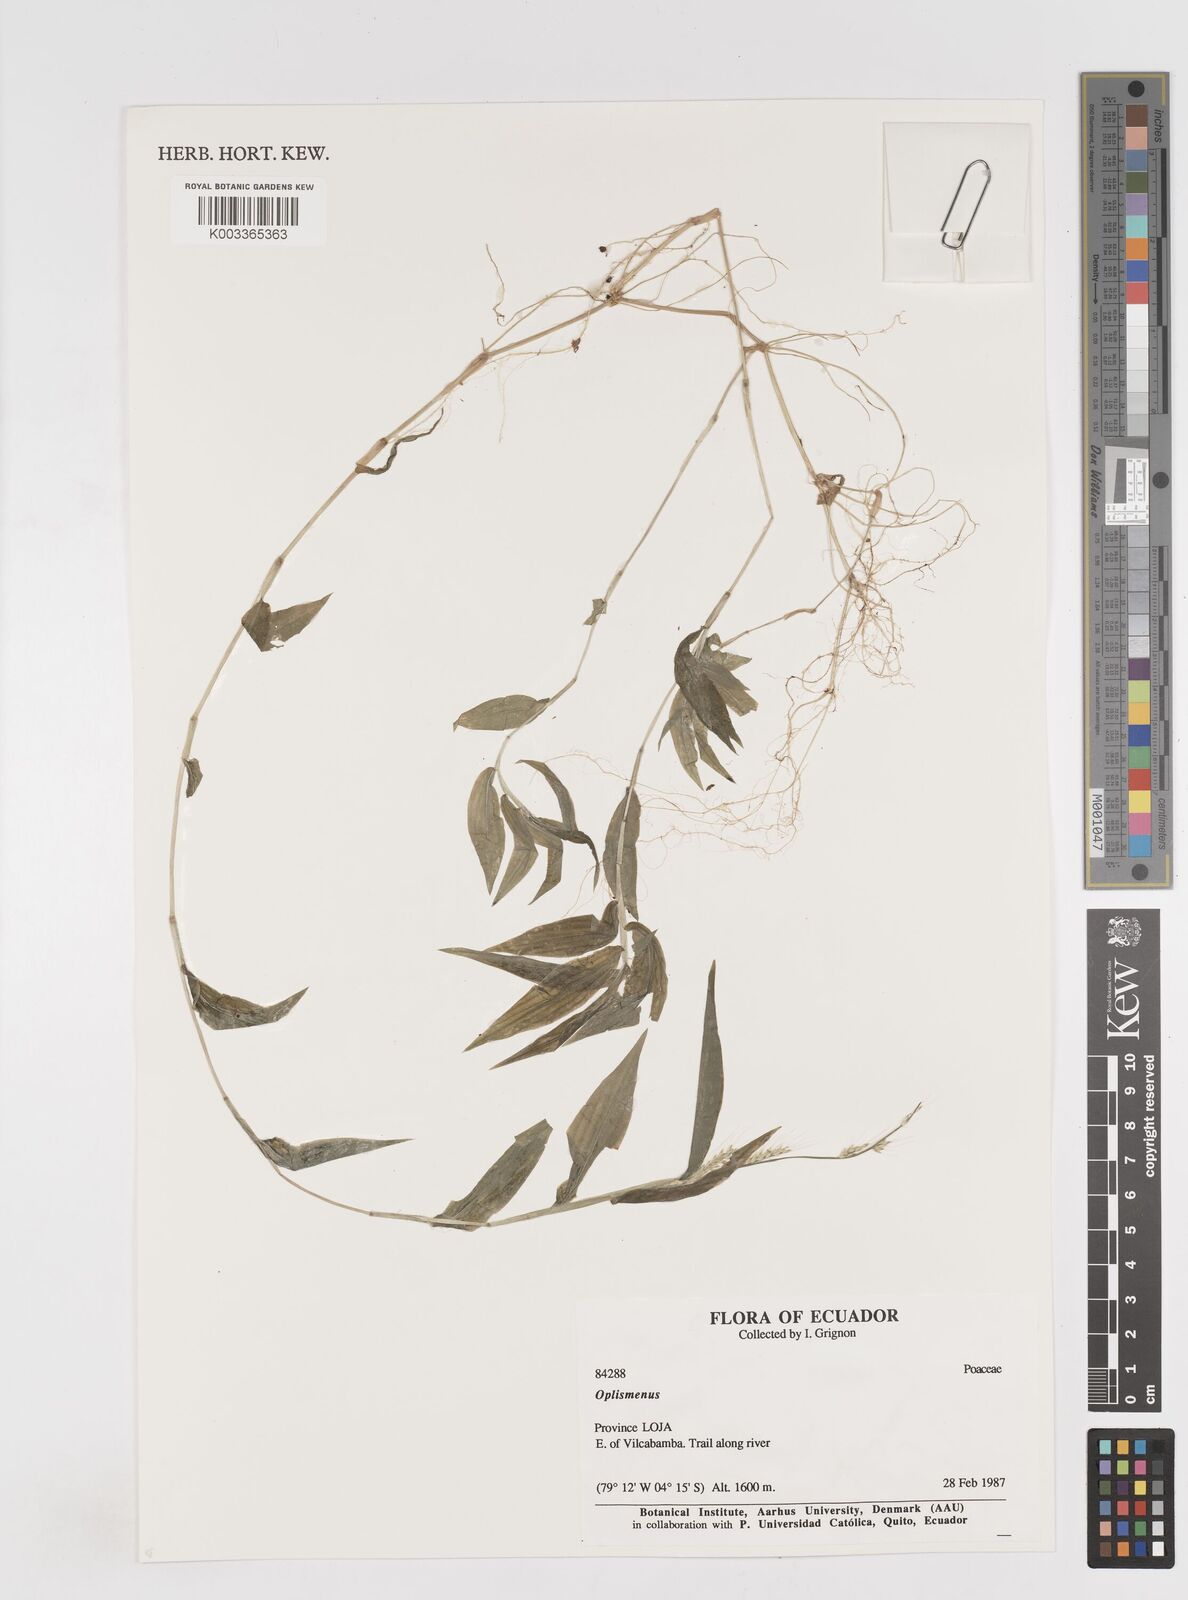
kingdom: Plantae
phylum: Tracheophyta
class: Liliopsida
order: Poales
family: Poaceae
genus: Oplismenus
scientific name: Oplismenus burmanni
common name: Burmann's basketgrass
